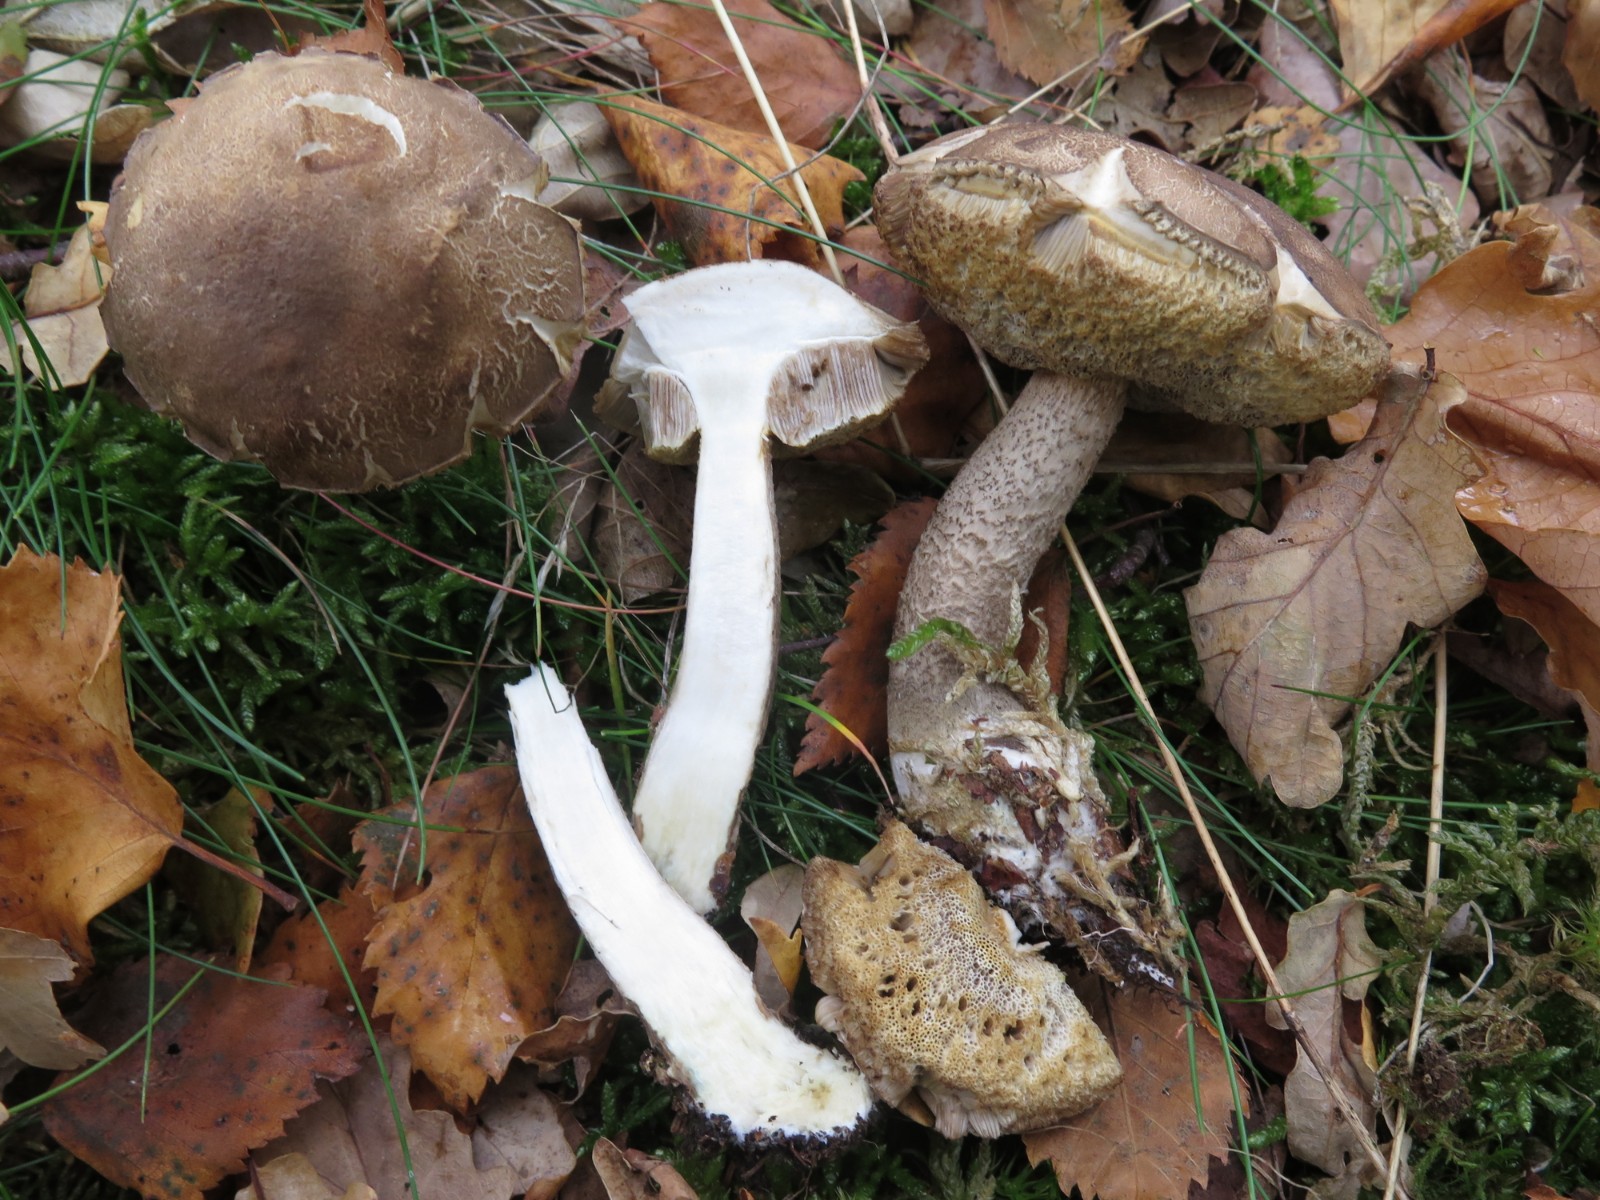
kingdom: Fungi
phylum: Basidiomycota
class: Agaricomycetes
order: Boletales
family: Boletaceae
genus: Leccinum
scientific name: Leccinum cyaneobasileucum
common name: almindelig skælrørhat
